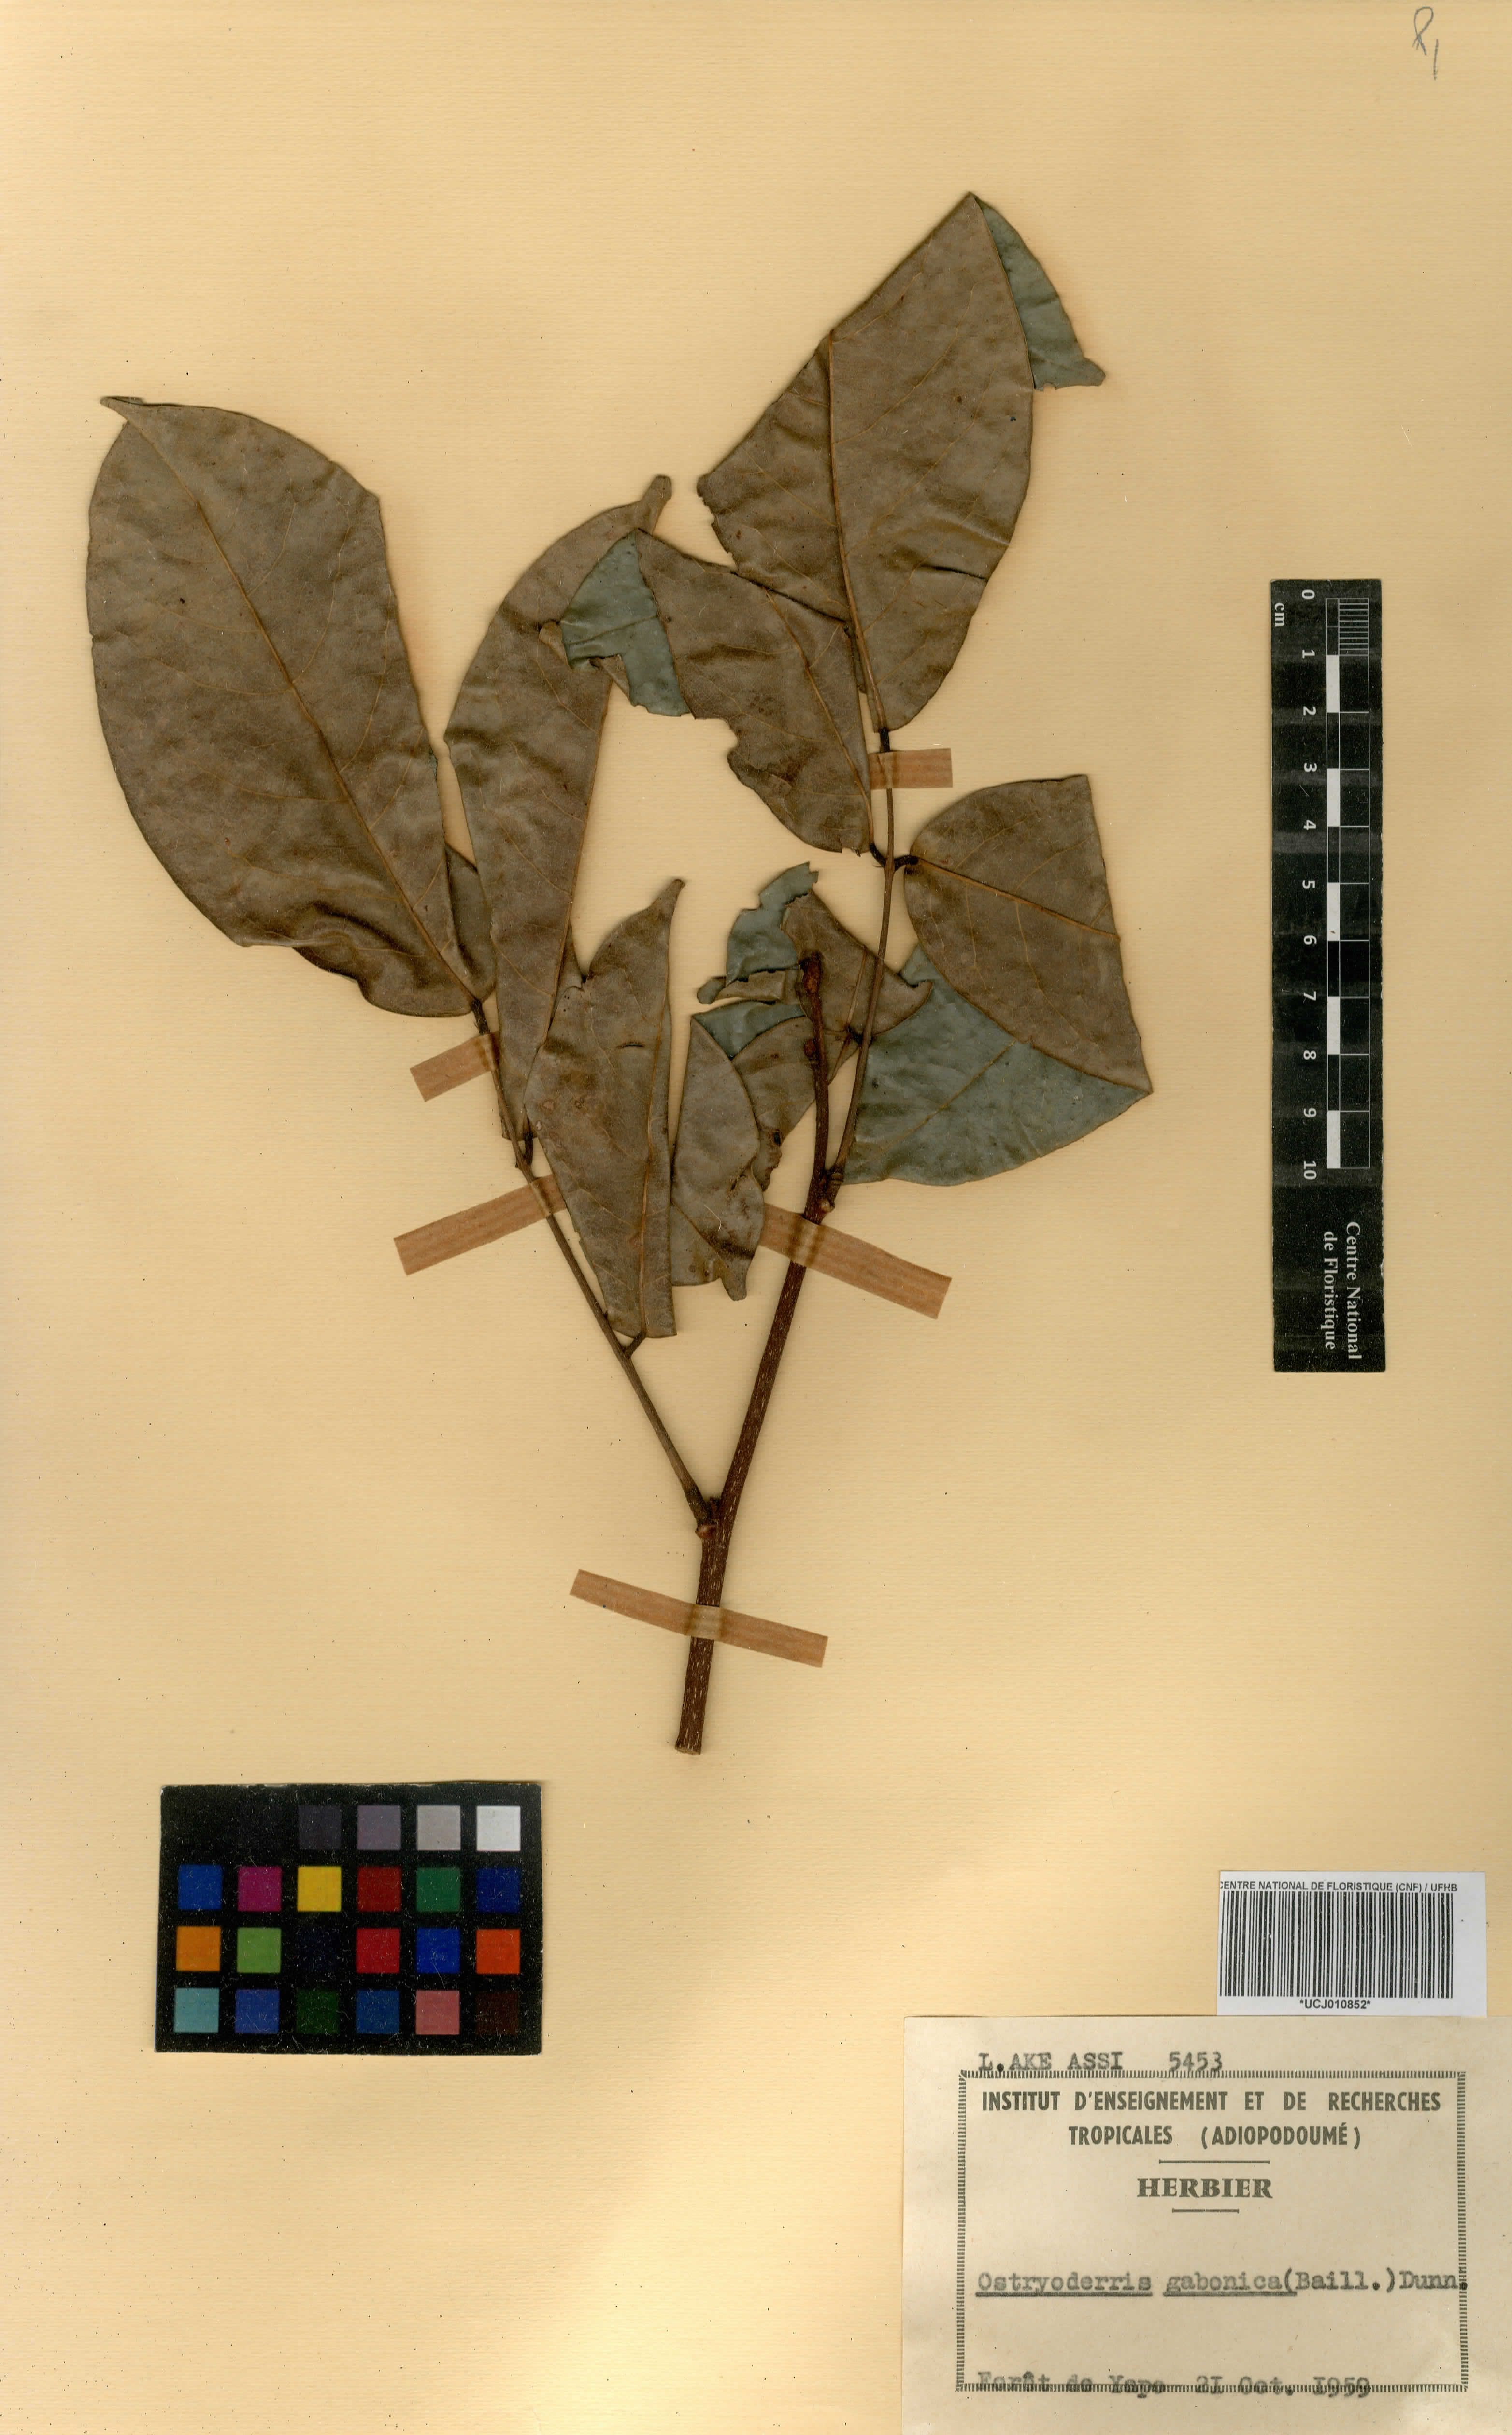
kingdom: Plantae
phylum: Tracheophyta
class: Magnoliopsida
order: Fabales
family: Fabaceae
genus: Aganope
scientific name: Aganope gabonica
